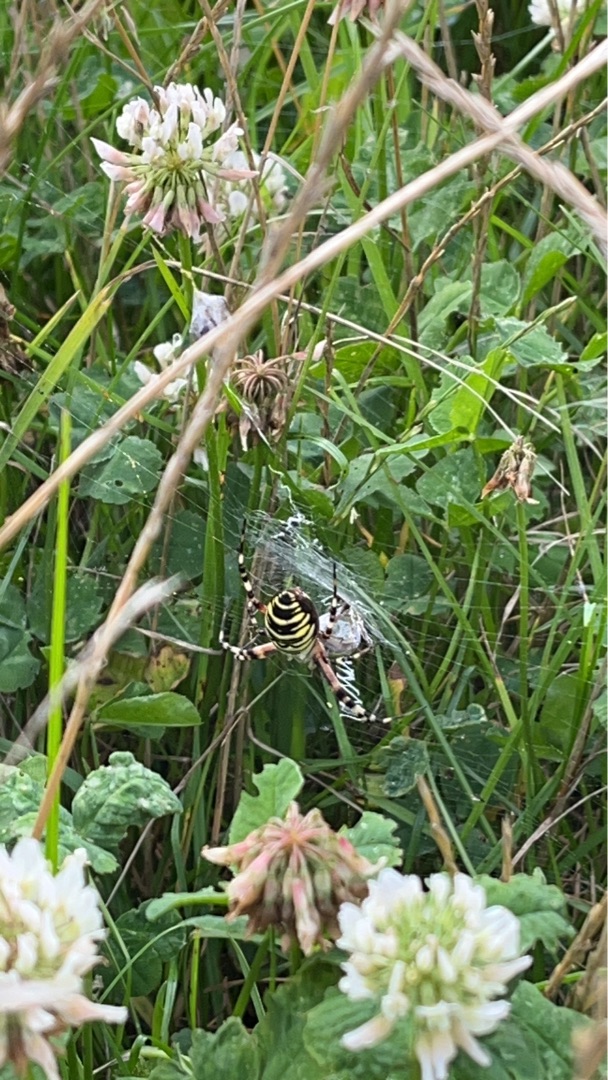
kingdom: Animalia
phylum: Arthropoda
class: Arachnida
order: Araneae
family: Araneidae
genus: Argiope
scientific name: Argiope bruennichi
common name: Hvepseedderkop
